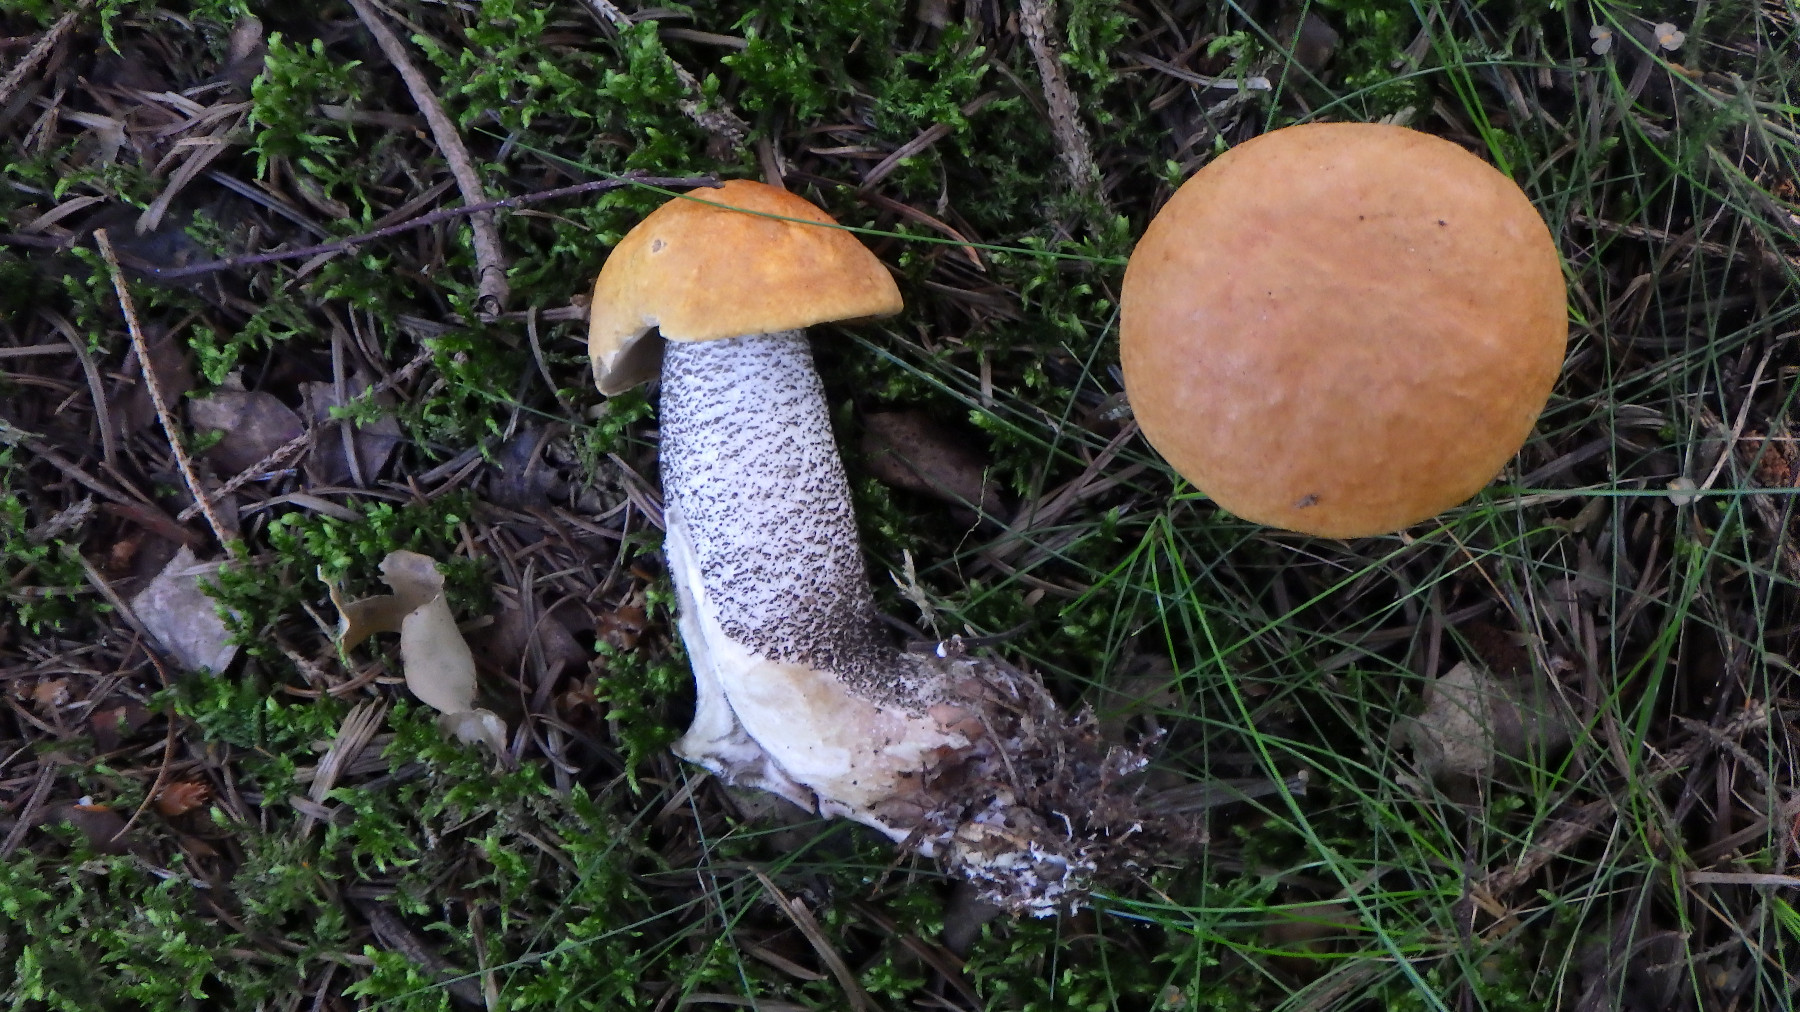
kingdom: Fungi
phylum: Basidiomycota
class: Agaricomycetes
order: Boletales
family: Boletaceae
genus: Leccinum
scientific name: Leccinum versipelle
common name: orange skælrørhat
